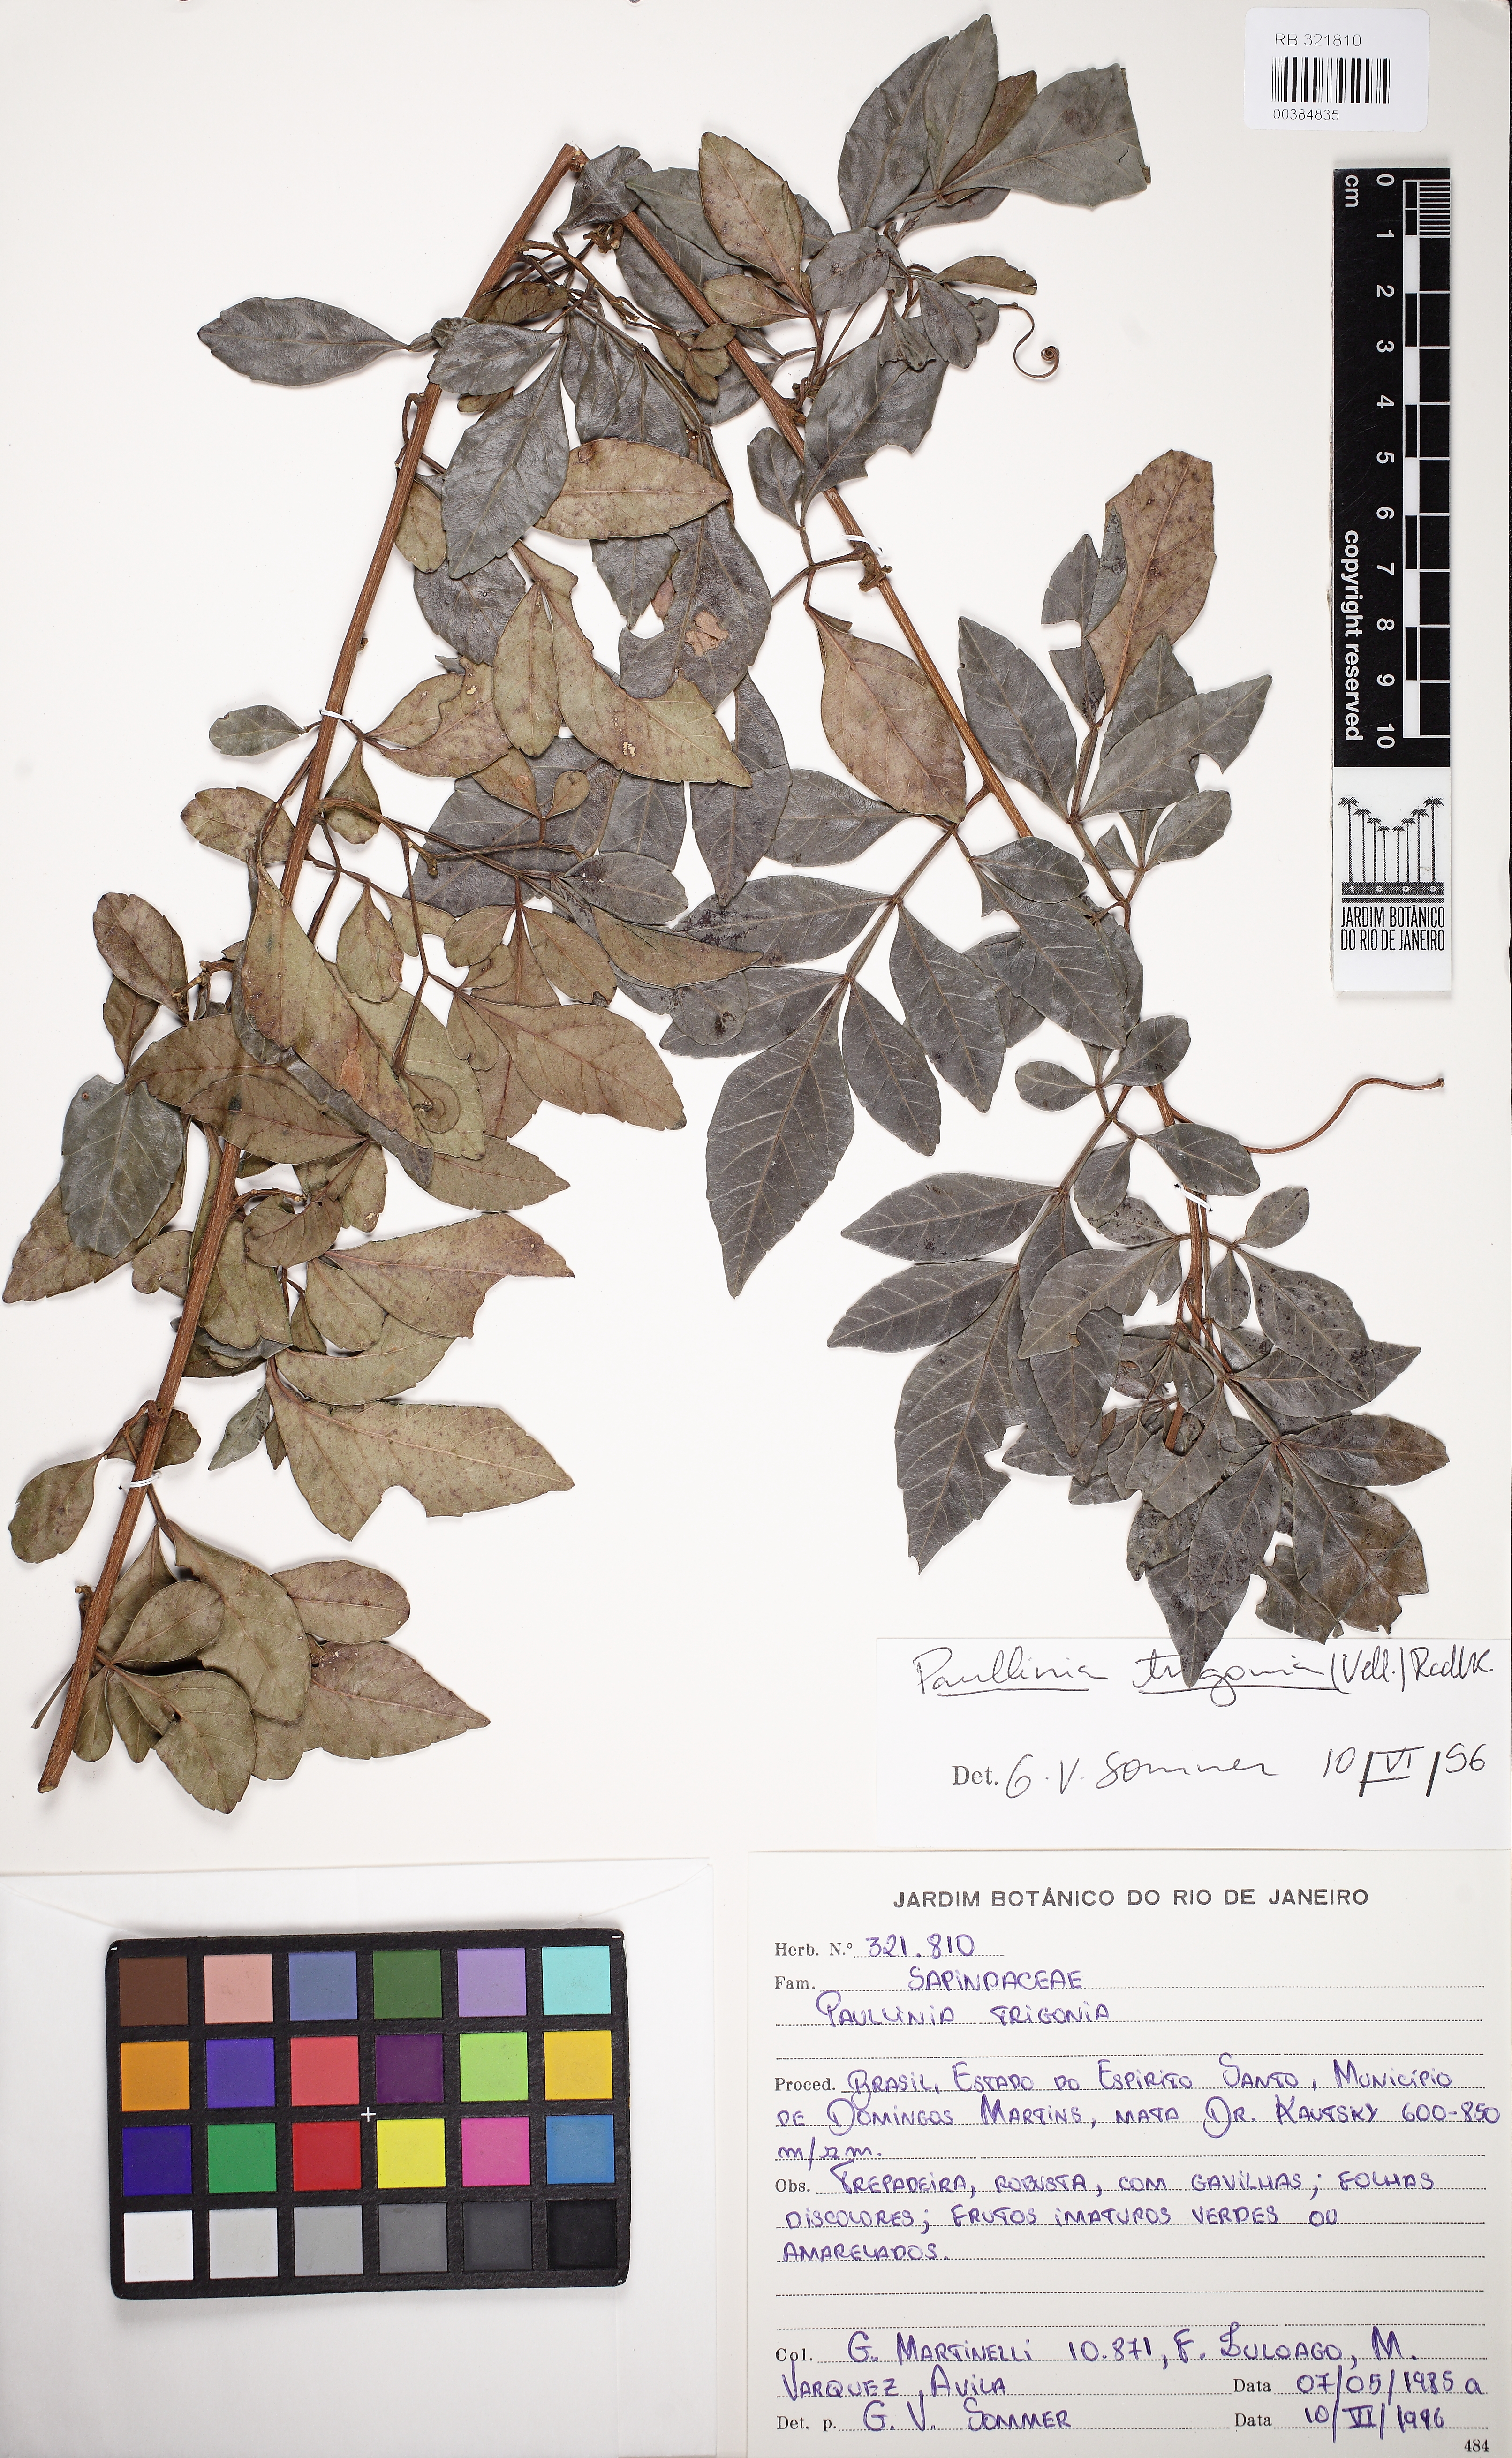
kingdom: Plantae
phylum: Tracheophyta
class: Magnoliopsida
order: Sapindales
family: Sapindaceae
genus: Paullinia
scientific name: Paullinia trigonia
